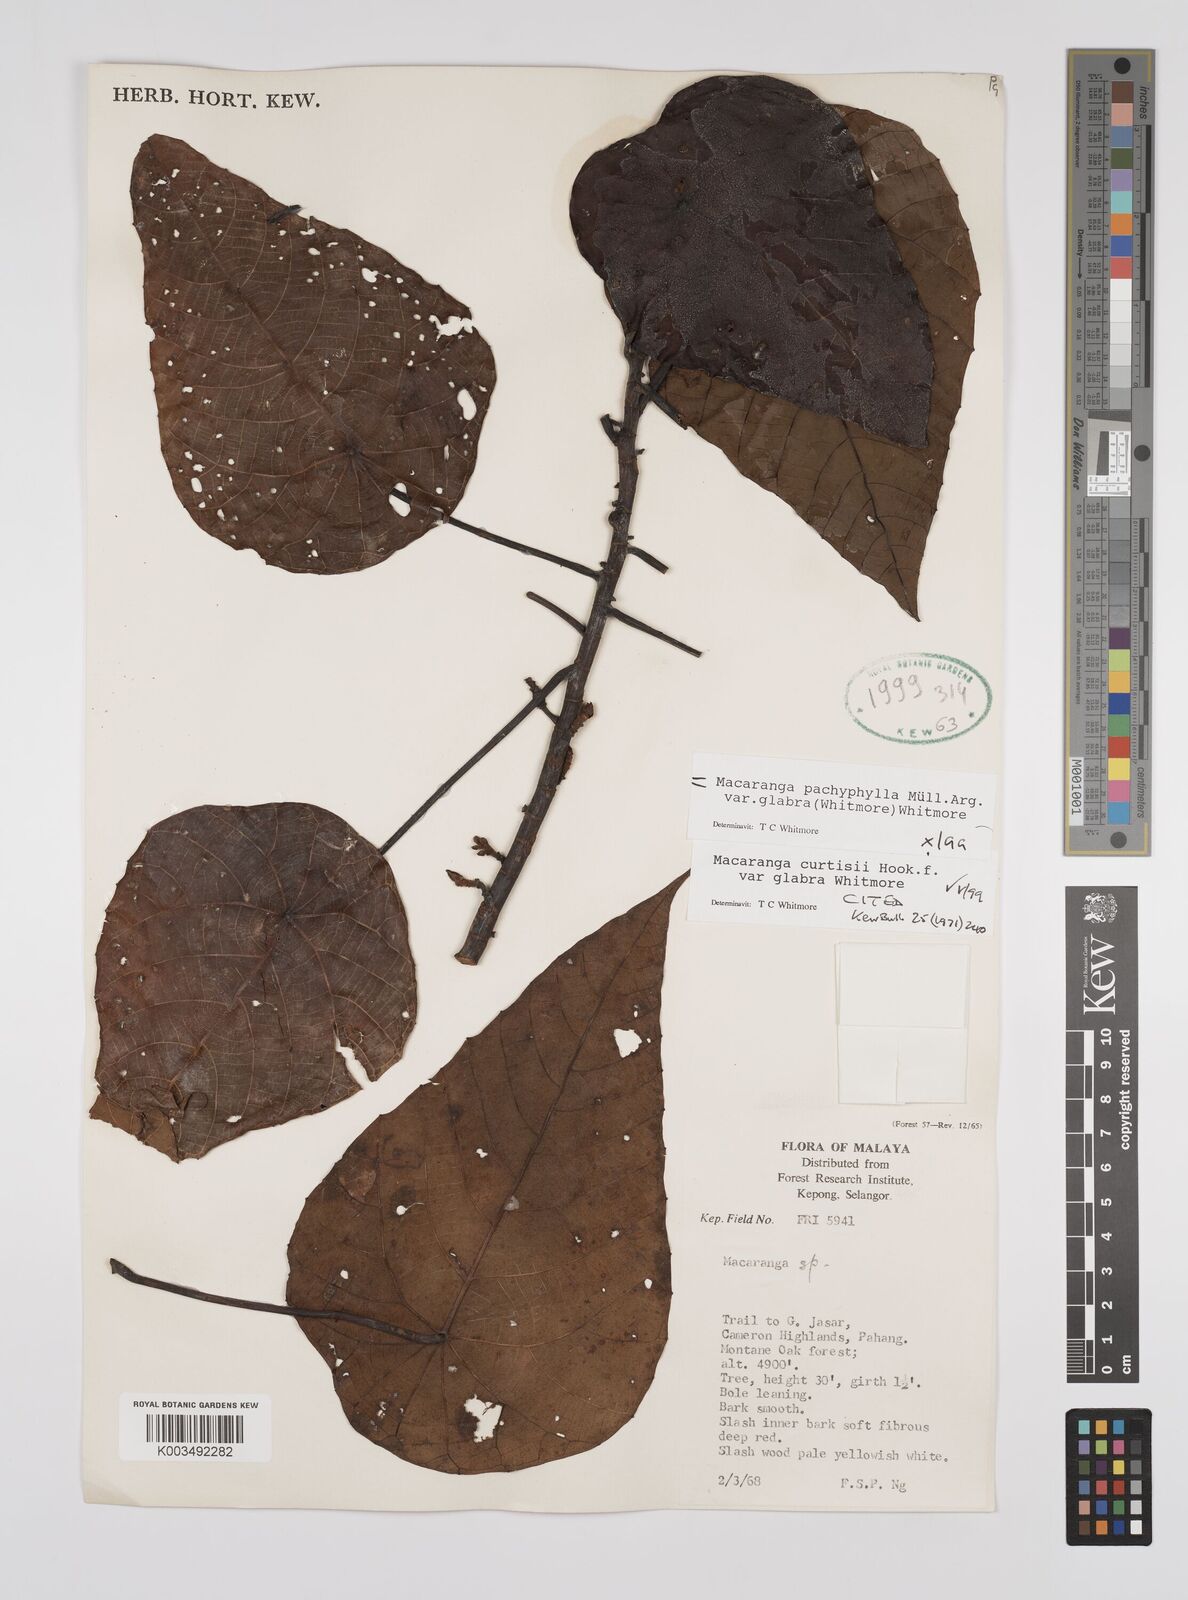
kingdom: Plantae
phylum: Tracheophyta
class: Magnoliopsida
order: Malpighiales
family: Euphorbiaceae
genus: Macaranga
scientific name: Macaranga pachyphylla
